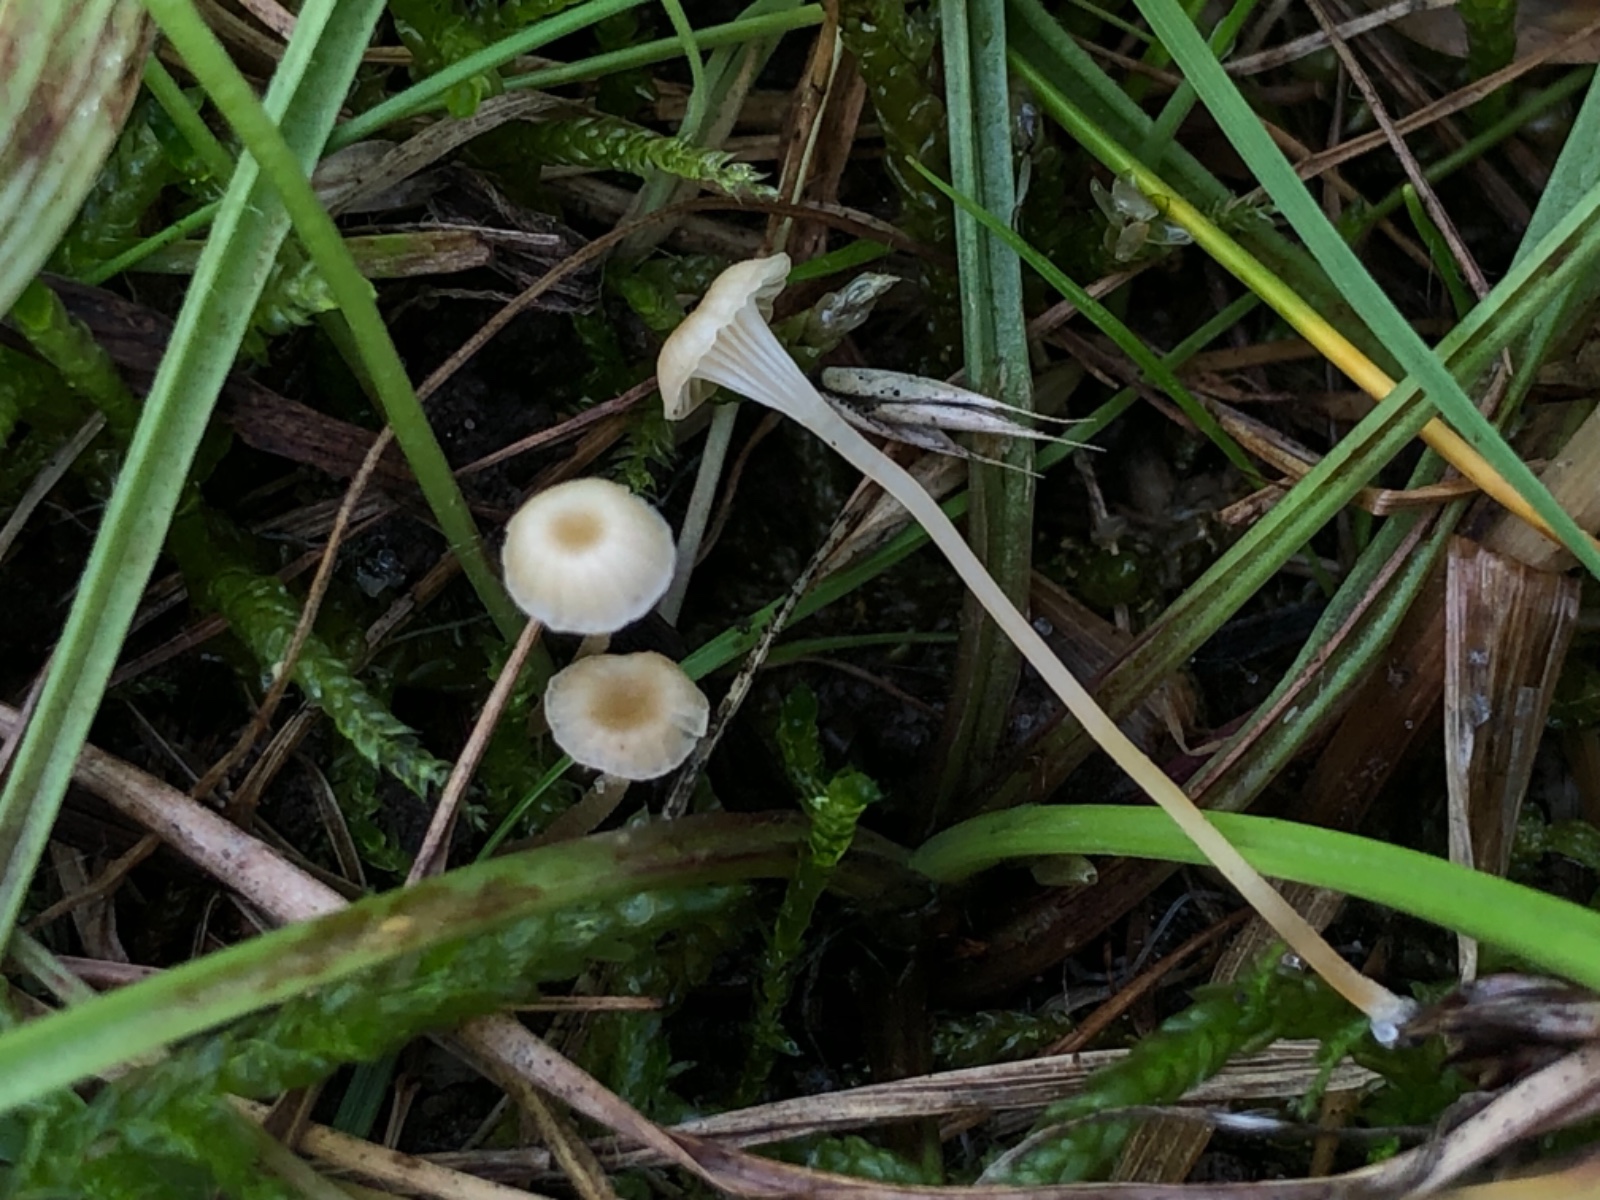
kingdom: Fungi
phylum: Basidiomycota
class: Agaricomycetes
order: Hymenochaetales
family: Rickenellaceae
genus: Rickenella
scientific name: Rickenella
